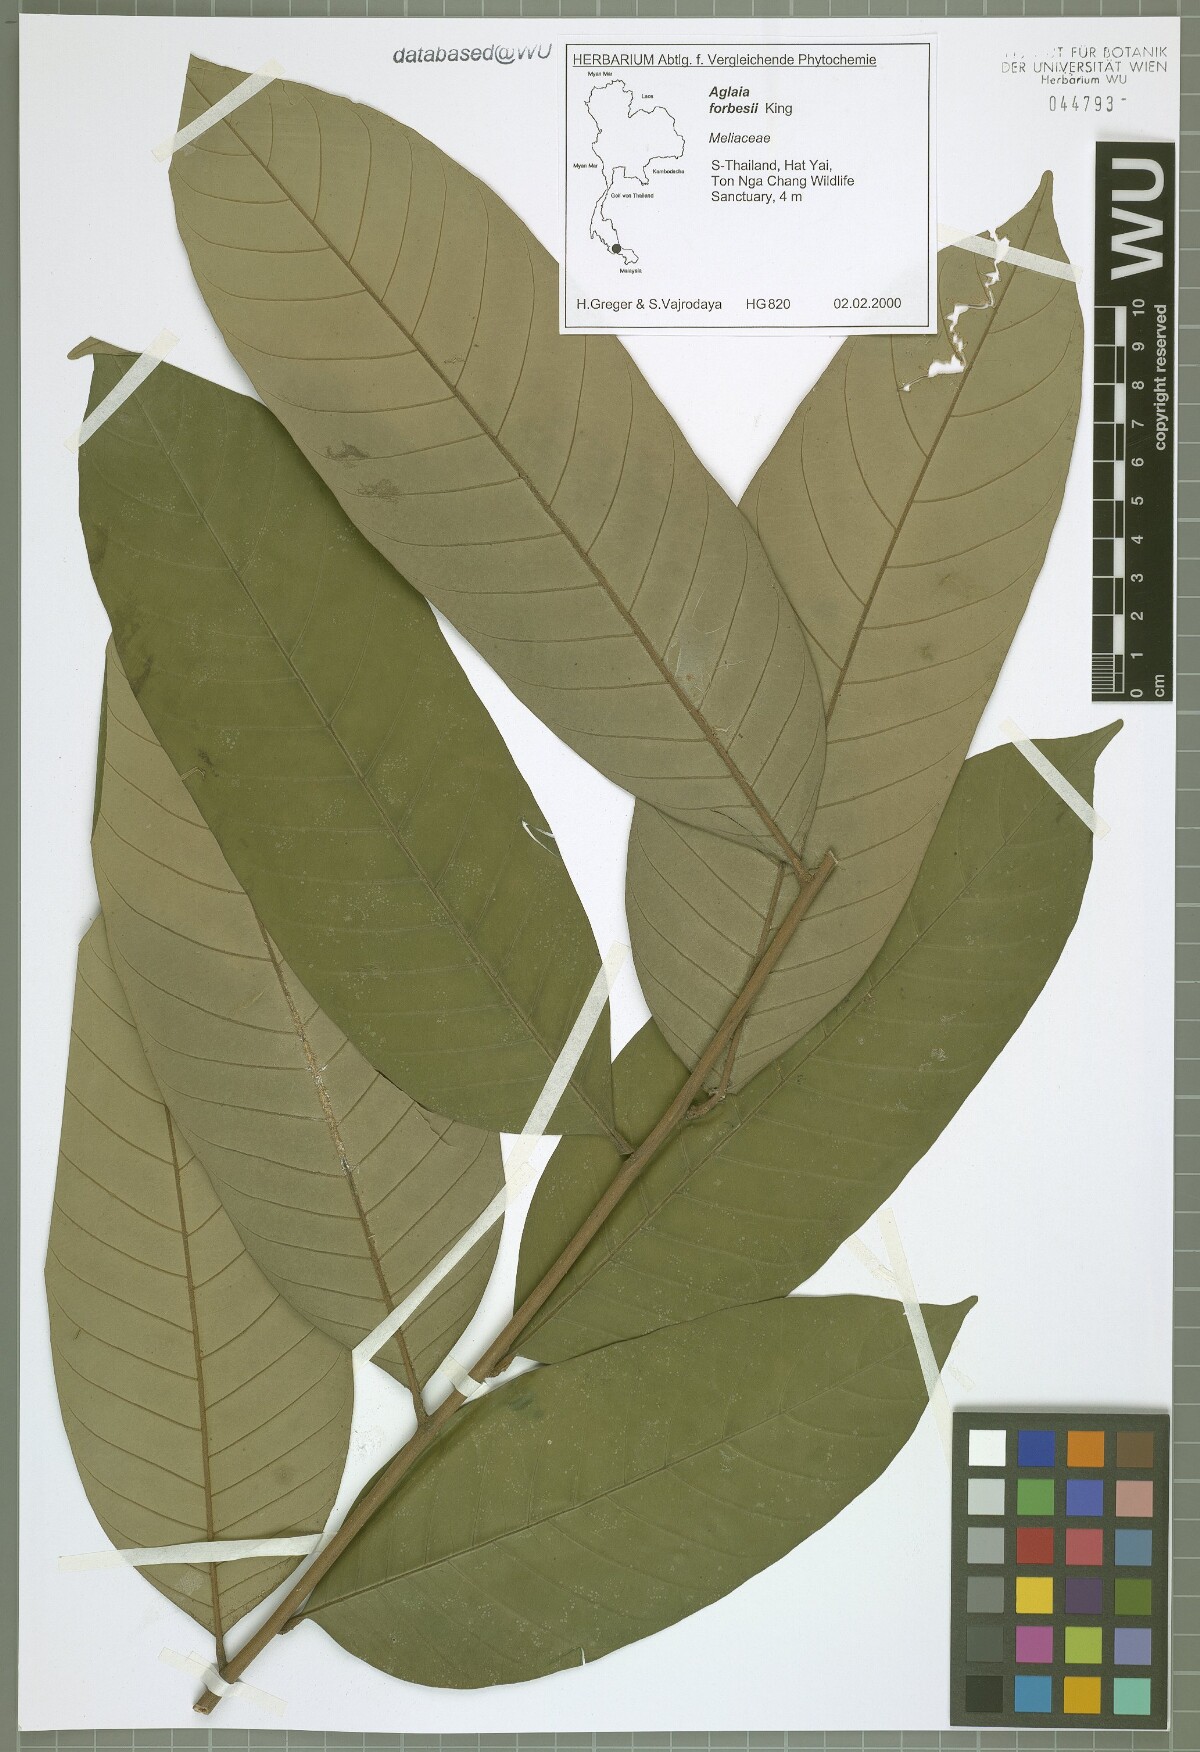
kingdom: Plantae
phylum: Tracheophyta
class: Magnoliopsida
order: Sapindales
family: Meliaceae
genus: Aglaia
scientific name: Aglaia forbesii
